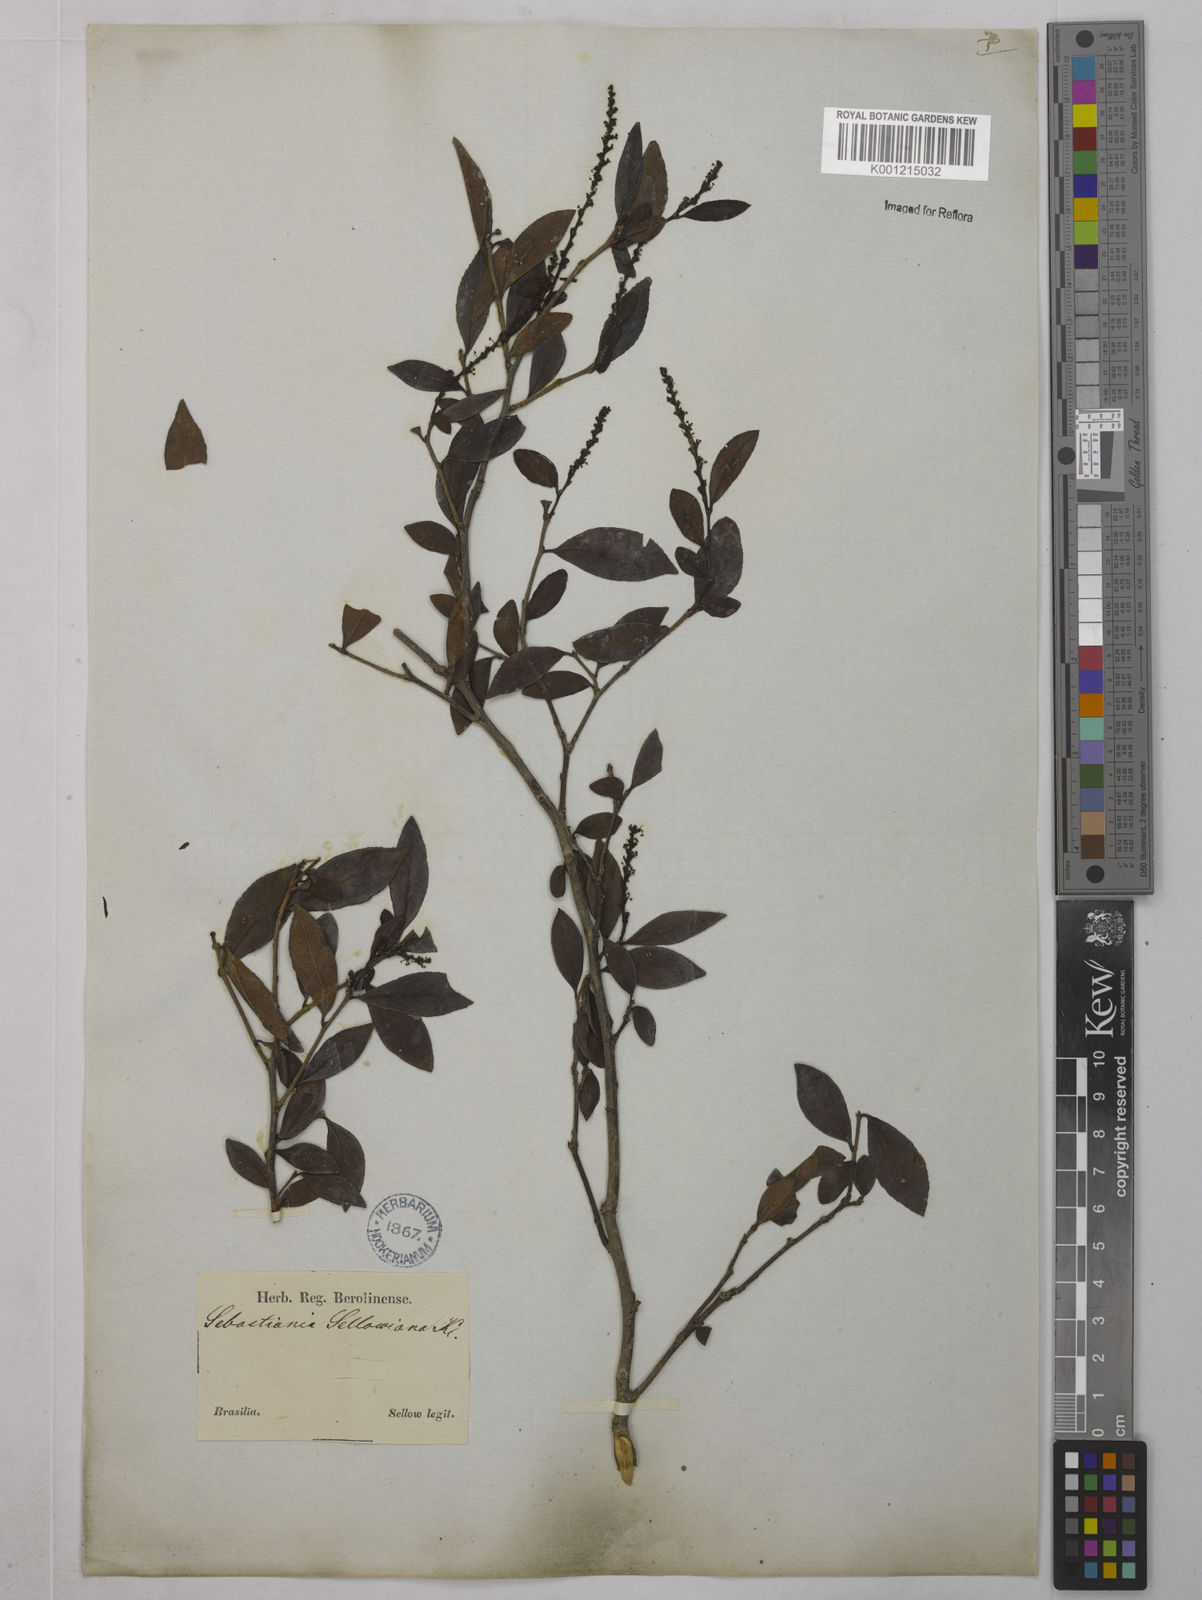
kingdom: Plantae
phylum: Tracheophyta
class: Magnoliopsida
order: Malpighiales
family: Euphorbiaceae
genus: Sebastiania
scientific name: Sebastiania brasiliensis
